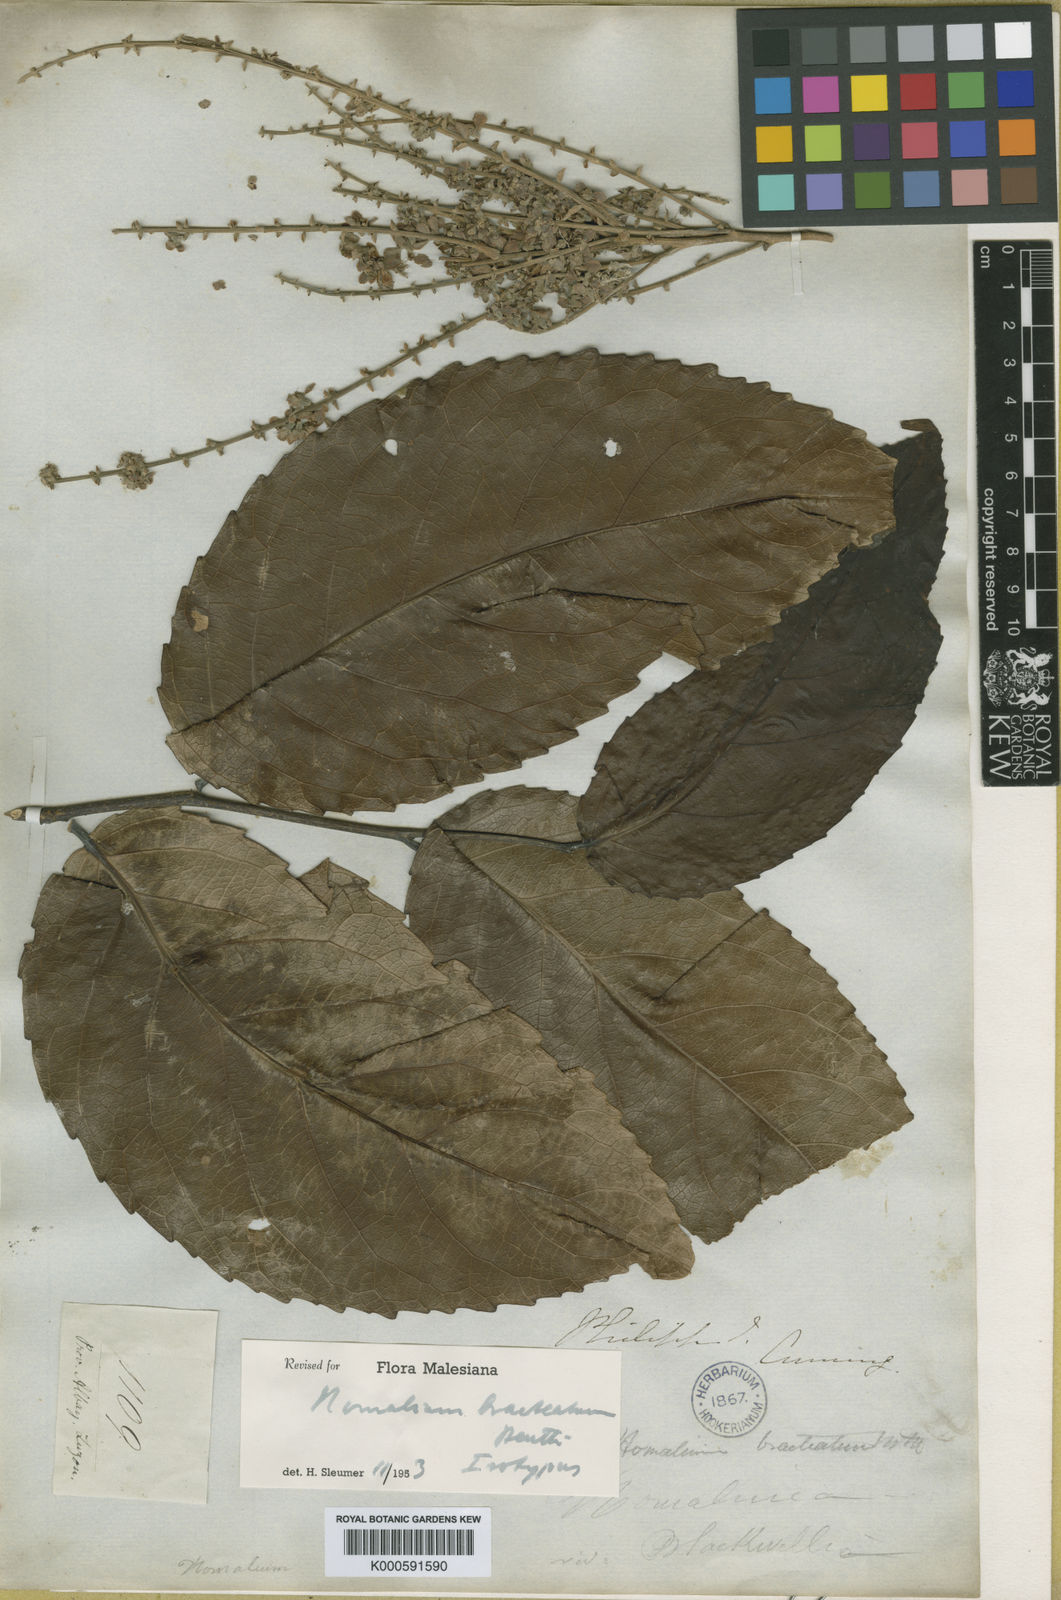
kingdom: Plantae
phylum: Tracheophyta
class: Magnoliopsida
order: Malpighiales
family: Salicaceae
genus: Homalium
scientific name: Homalium bracteatum
